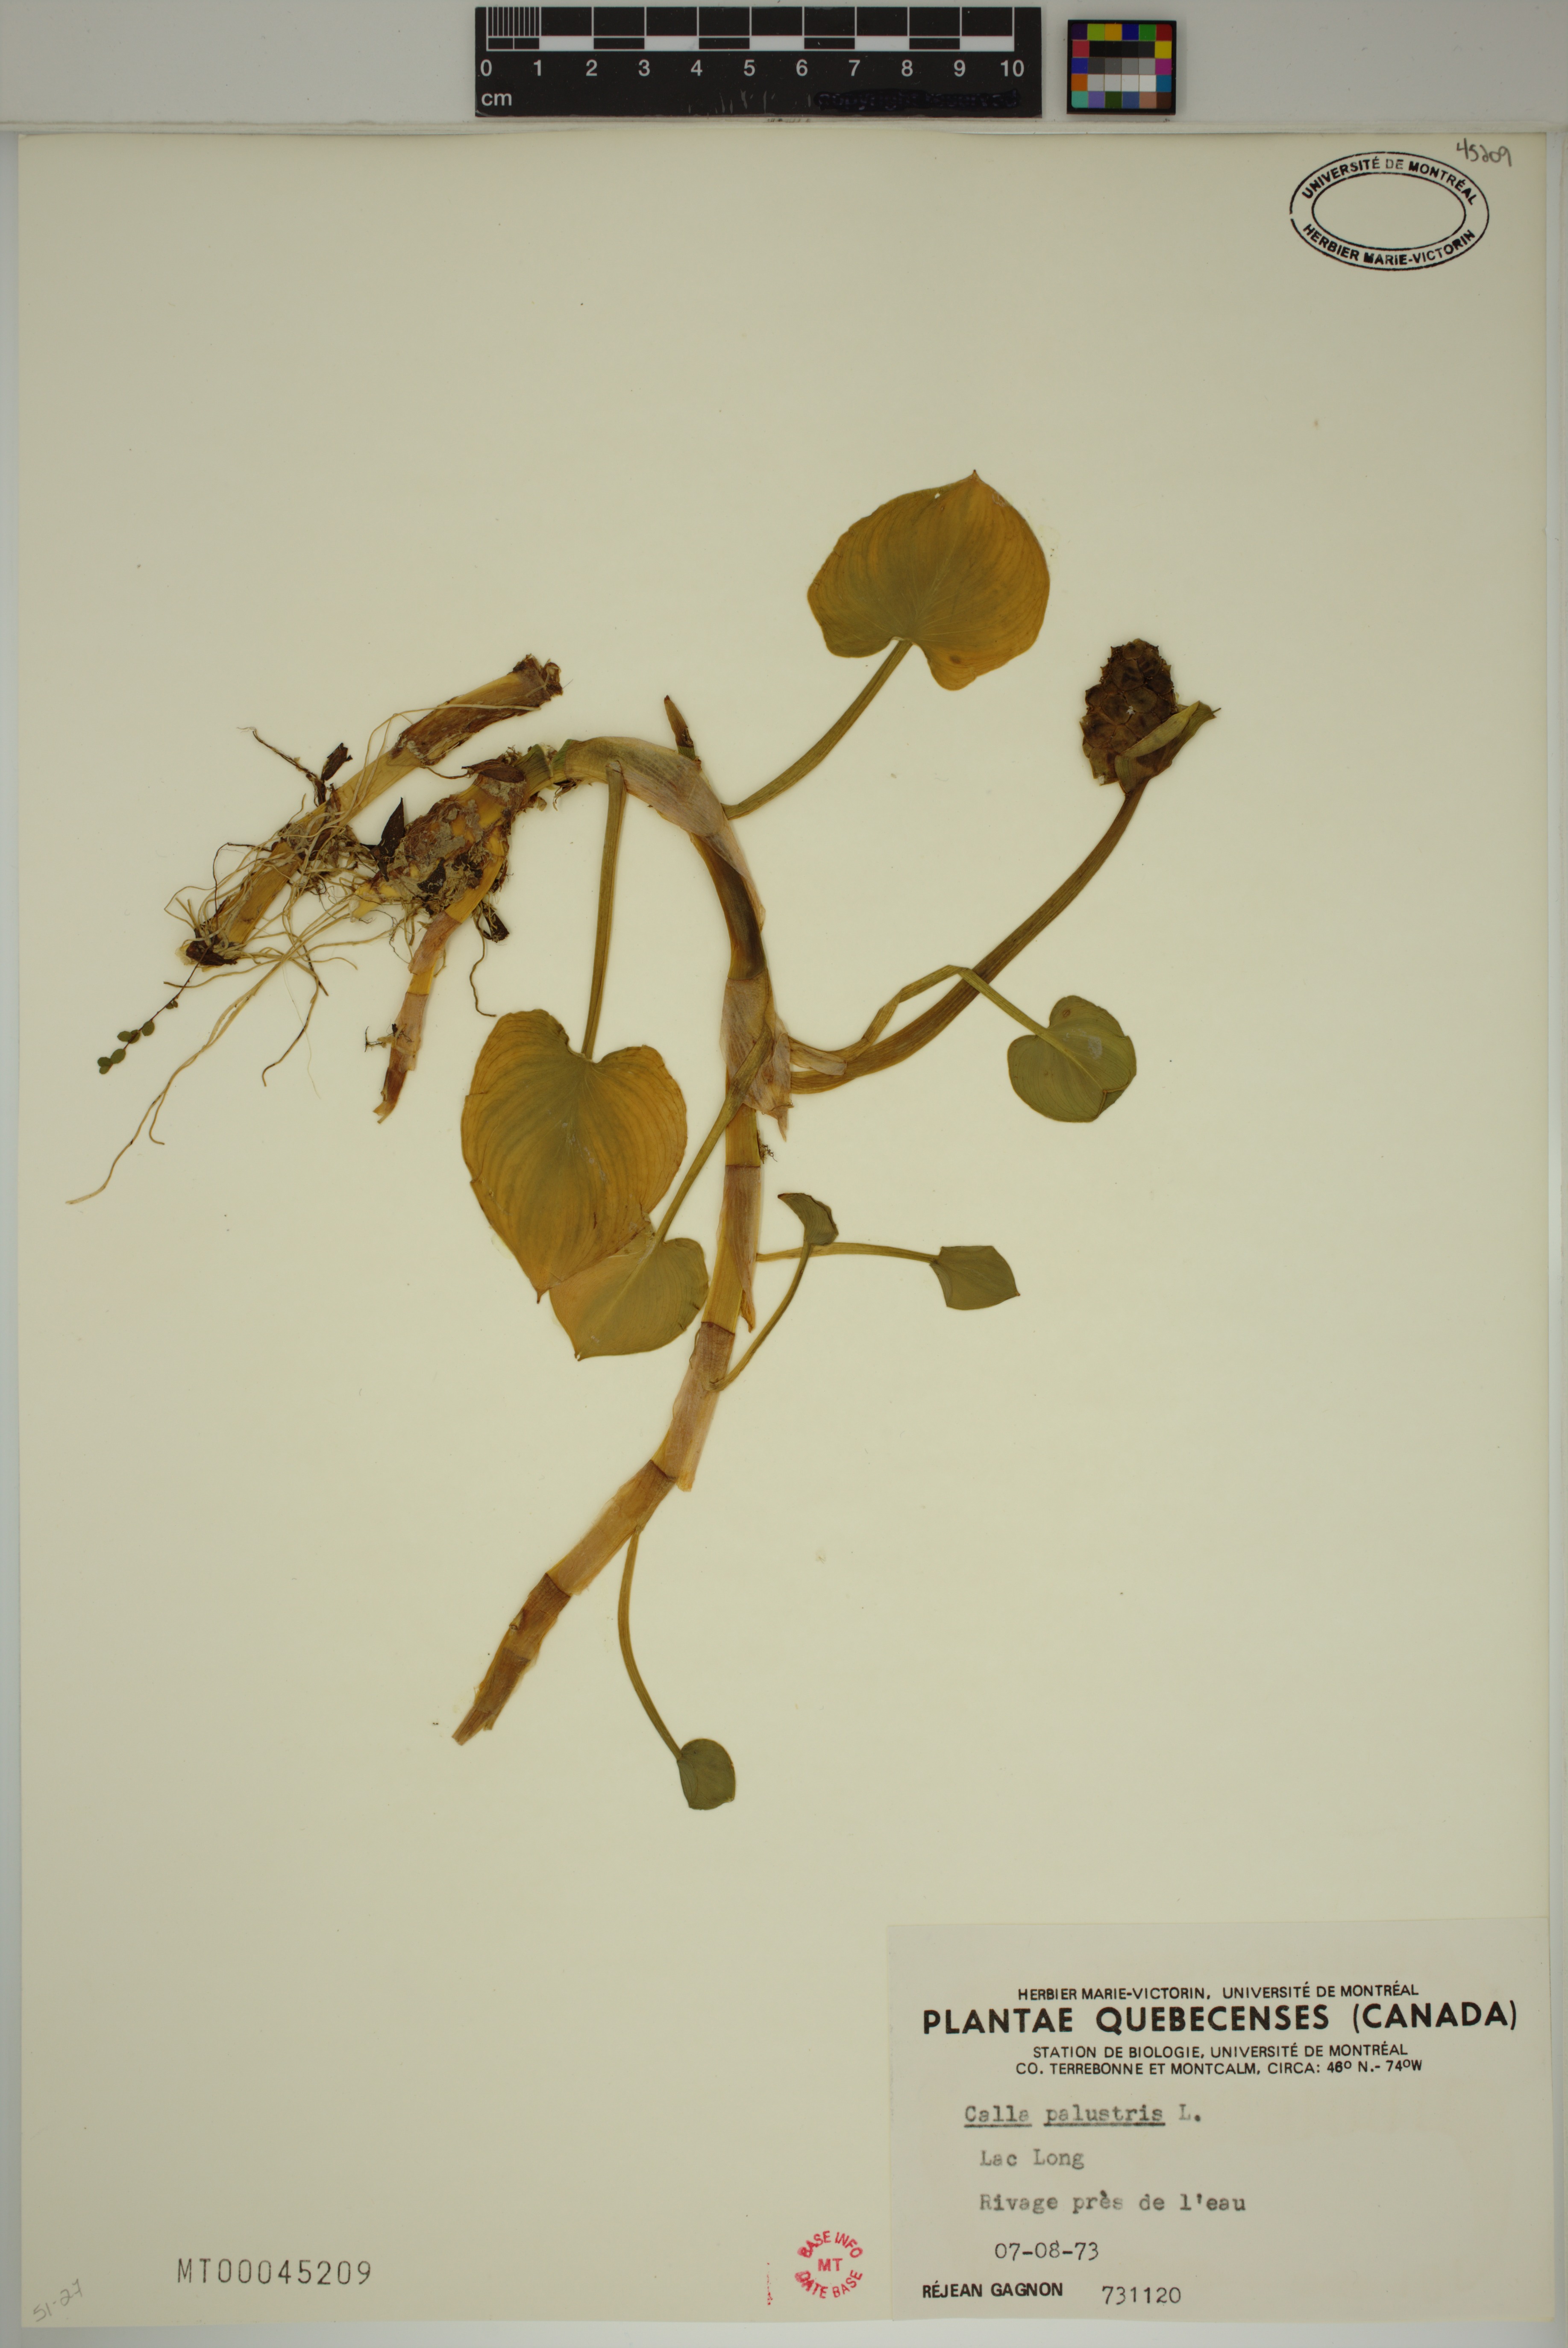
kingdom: Plantae
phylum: Tracheophyta
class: Liliopsida
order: Alismatales
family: Araceae
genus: Calla
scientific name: Calla palustris
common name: Bog arum
